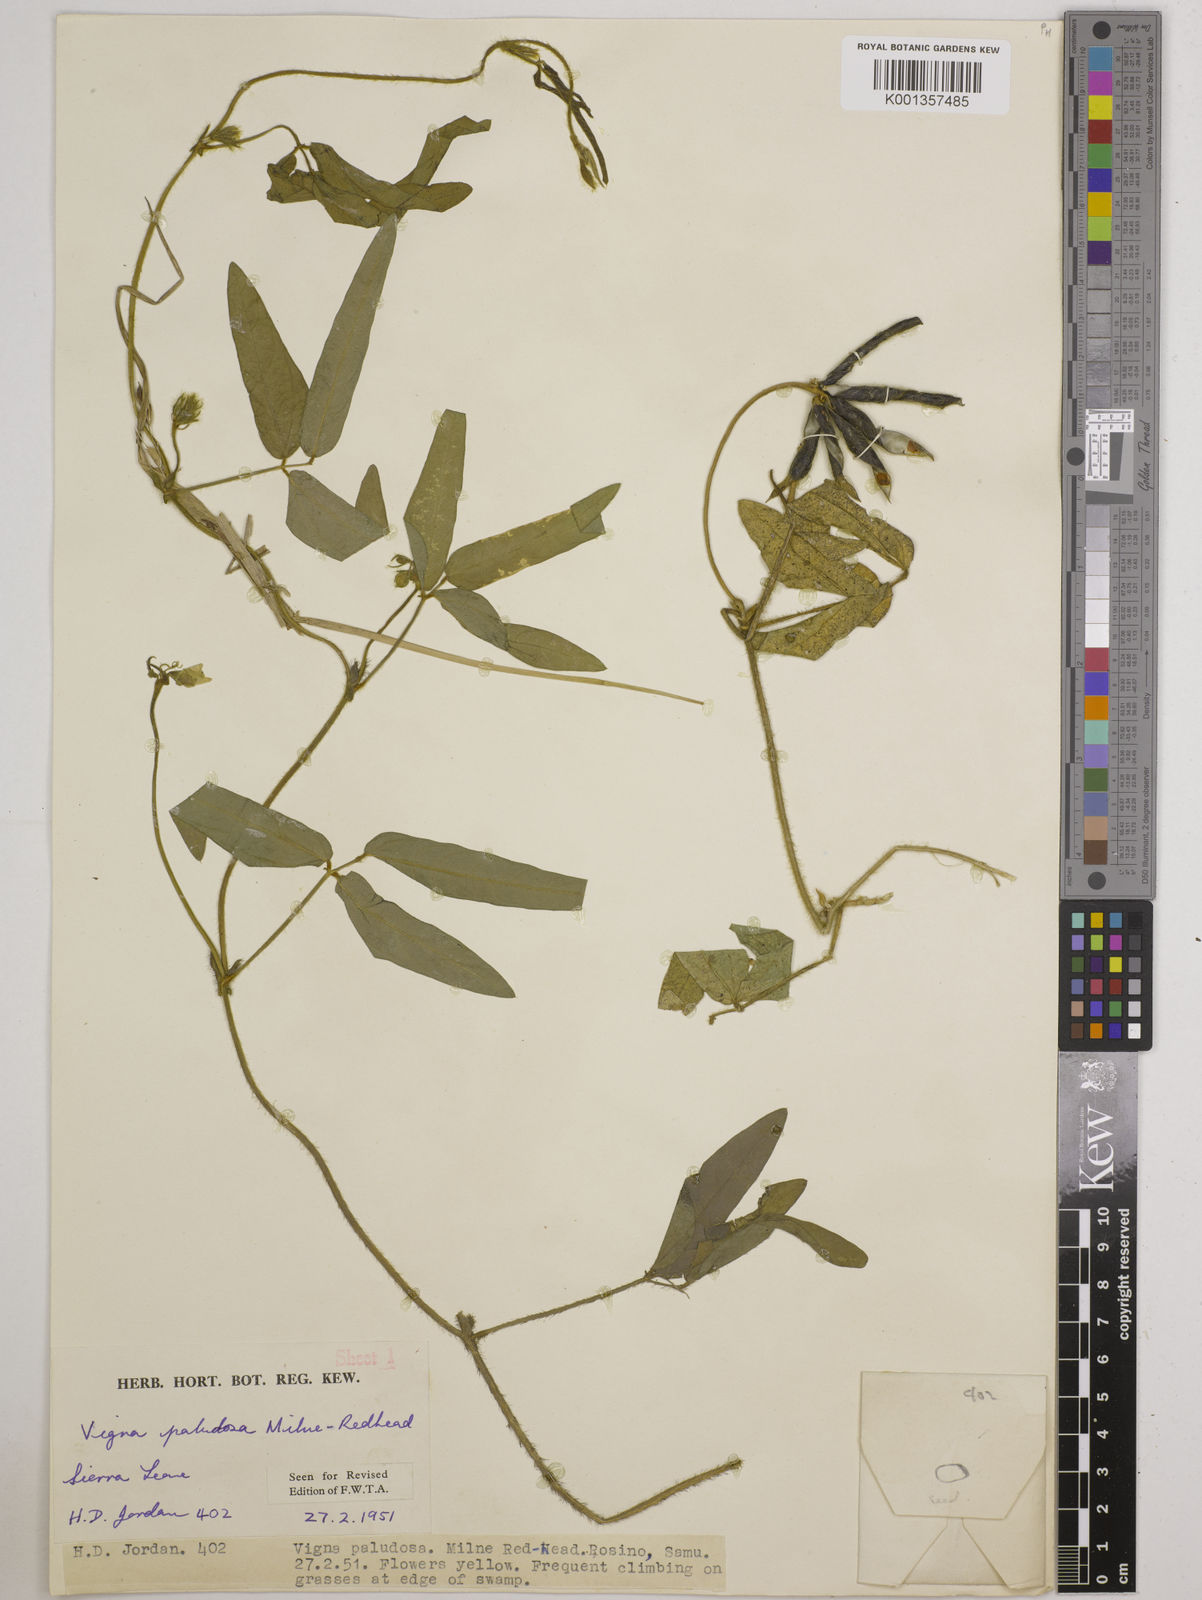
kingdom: Plantae
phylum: Tracheophyta
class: Magnoliopsida
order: Fabales
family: Fabaceae
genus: Vigna
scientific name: Vigna longifolia
